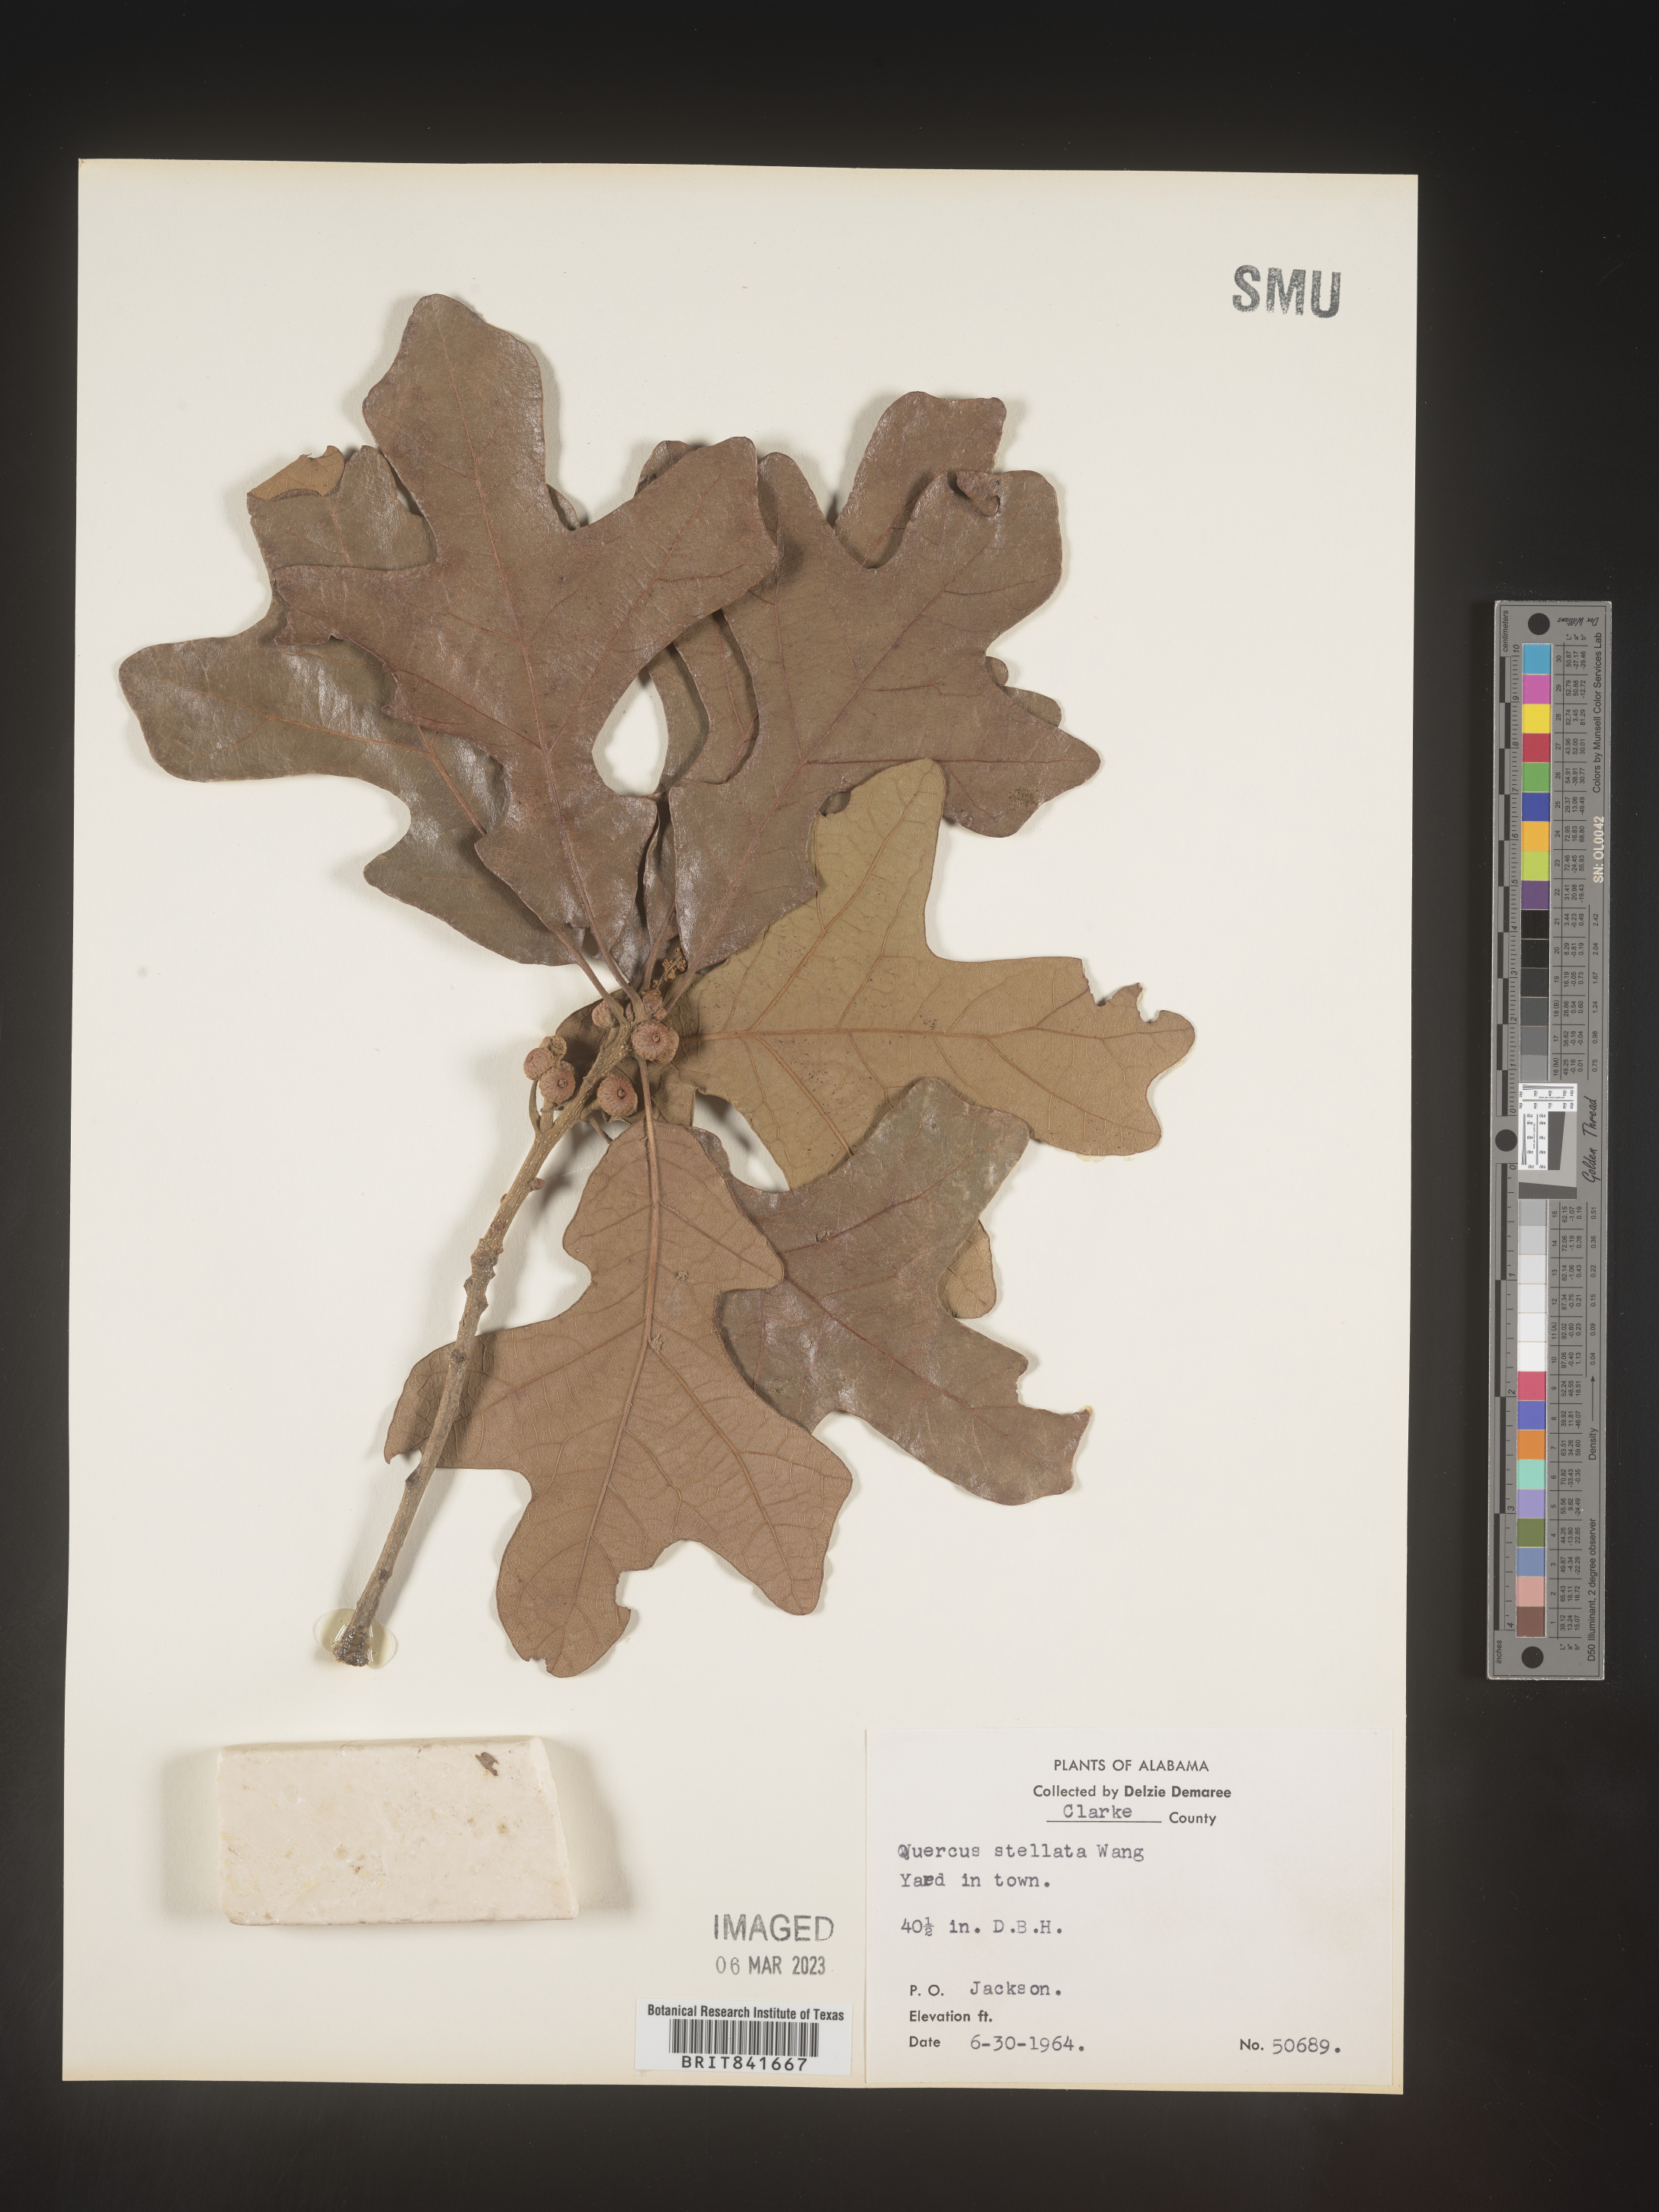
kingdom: Plantae
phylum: Tracheophyta
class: Magnoliopsida
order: Fagales
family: Fagaceae
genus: Quercus
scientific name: Quercus stellata
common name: Post oak
